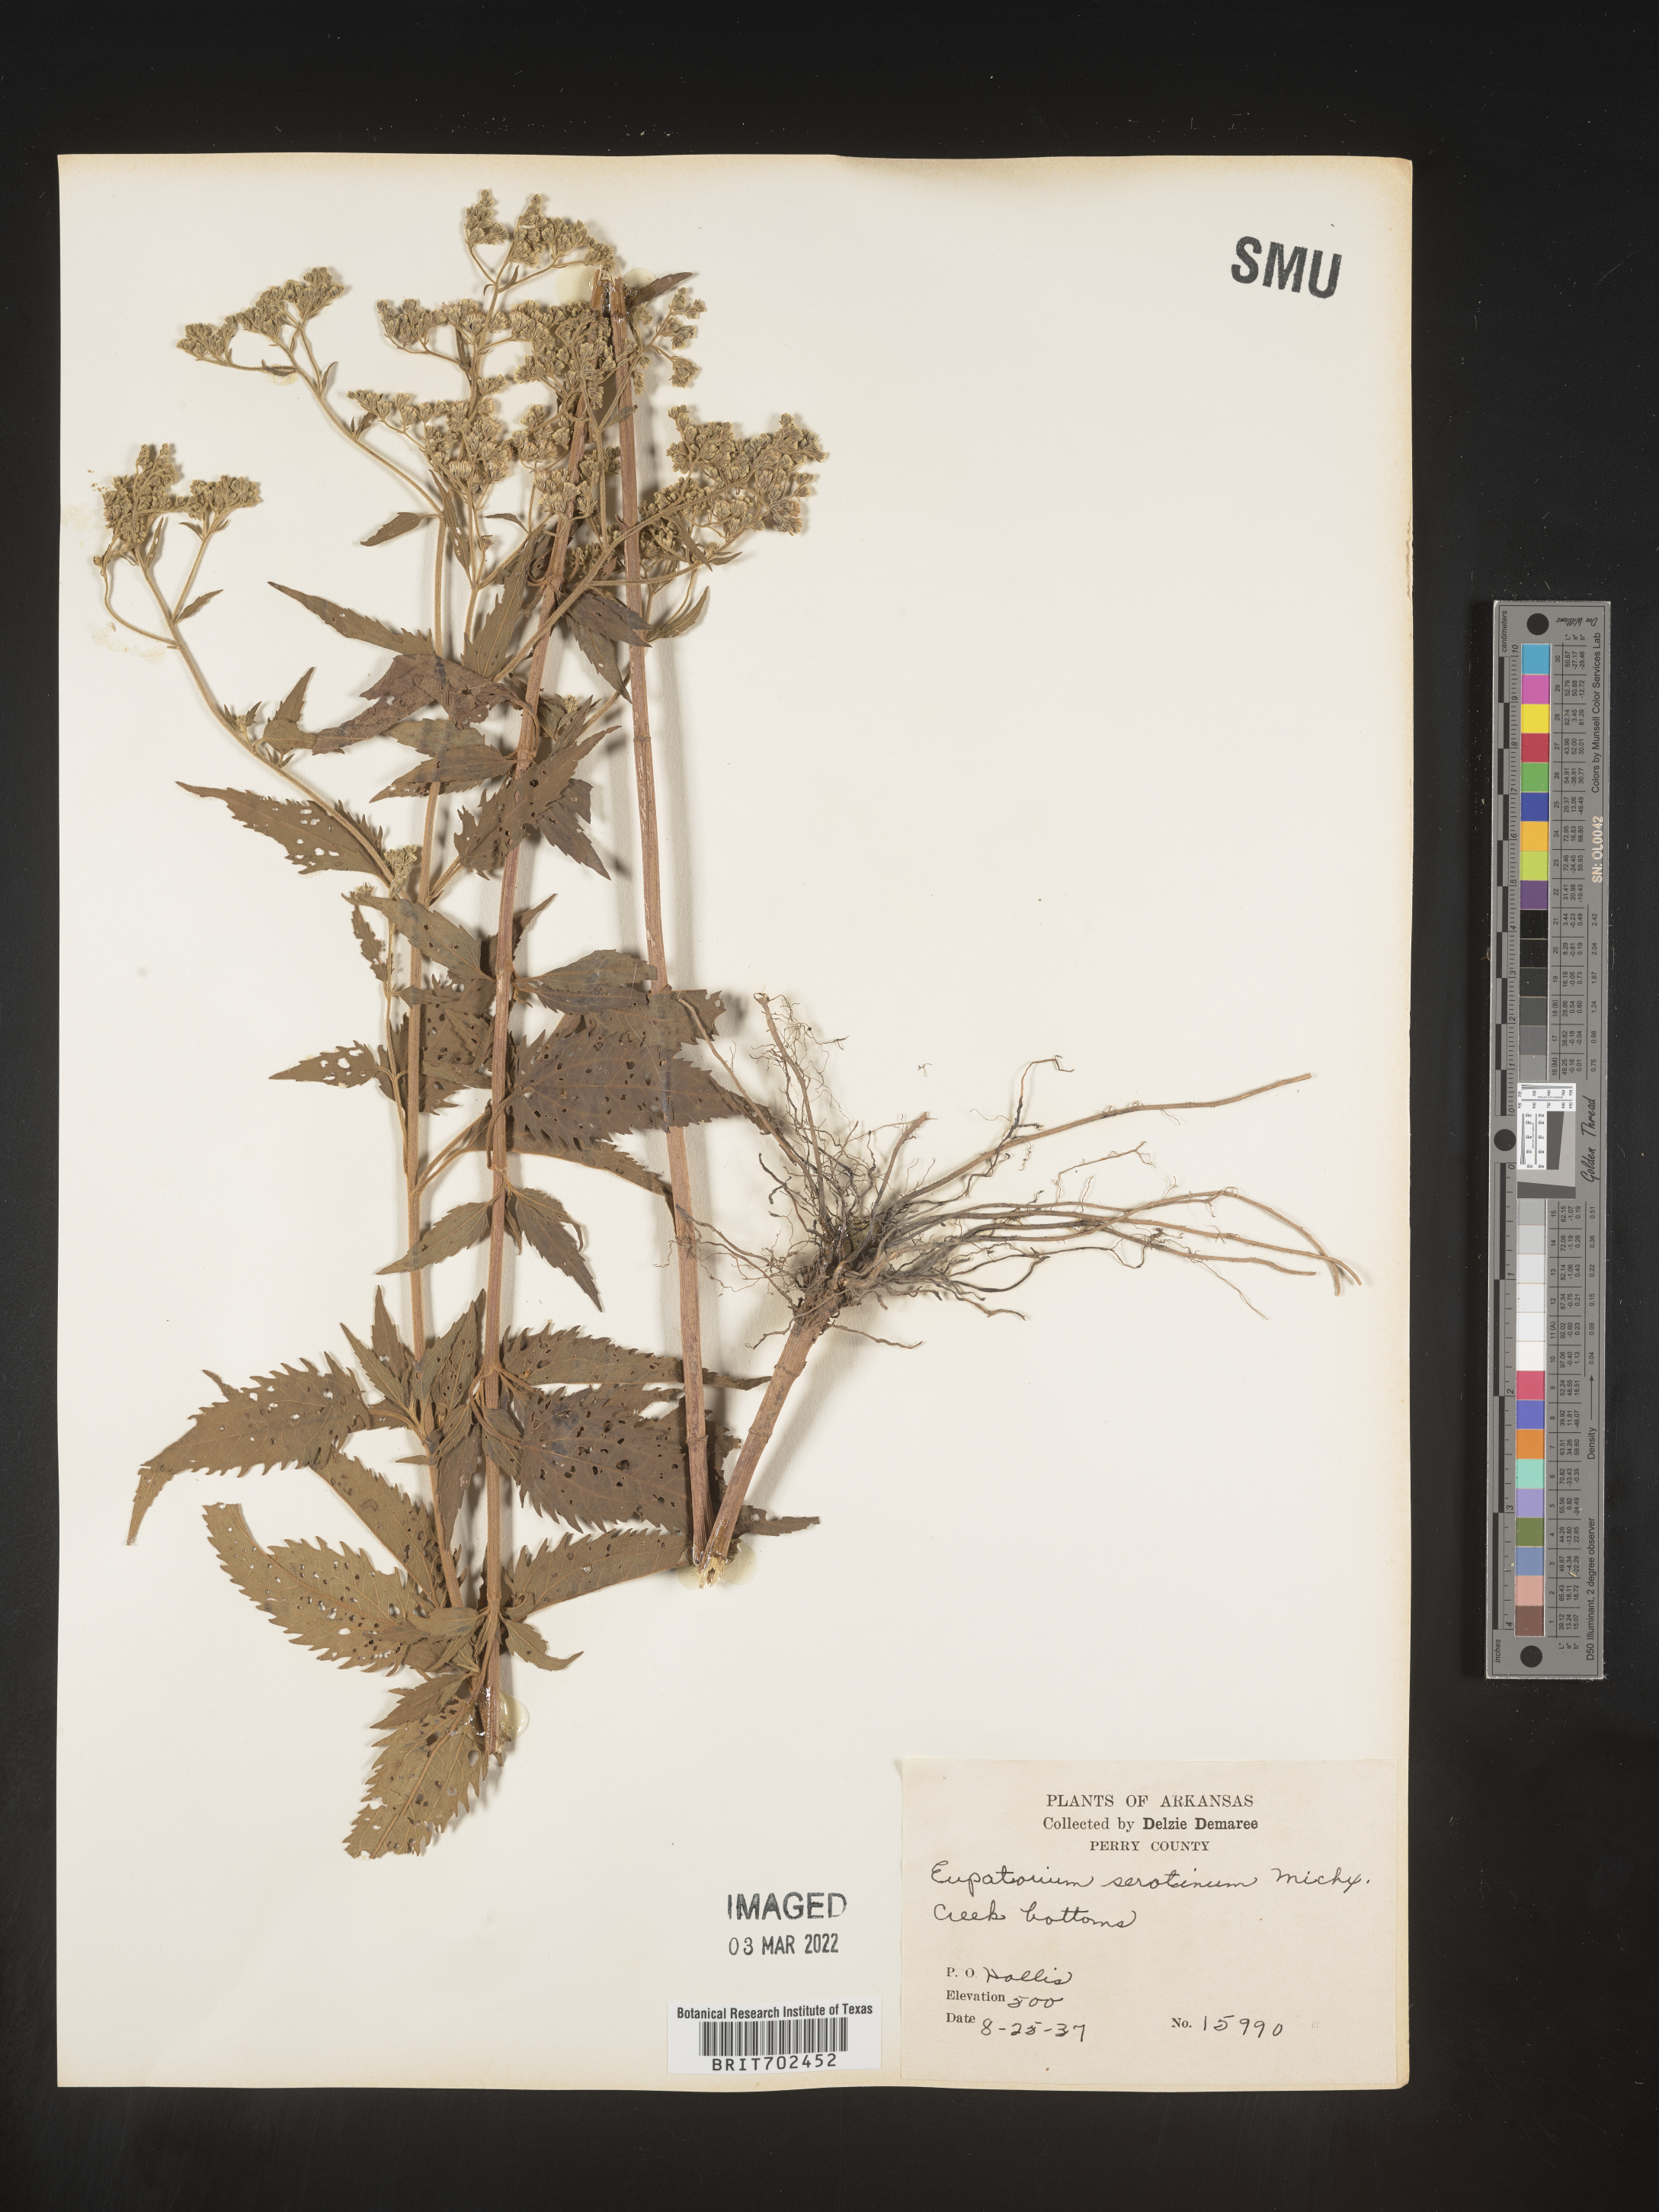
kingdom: Plantae
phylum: Tracheophyta
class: Magnoliopsida
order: Asterales
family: Asteraceae
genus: Eupatorium
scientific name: Eupatorium serotinum
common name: Late boneset
